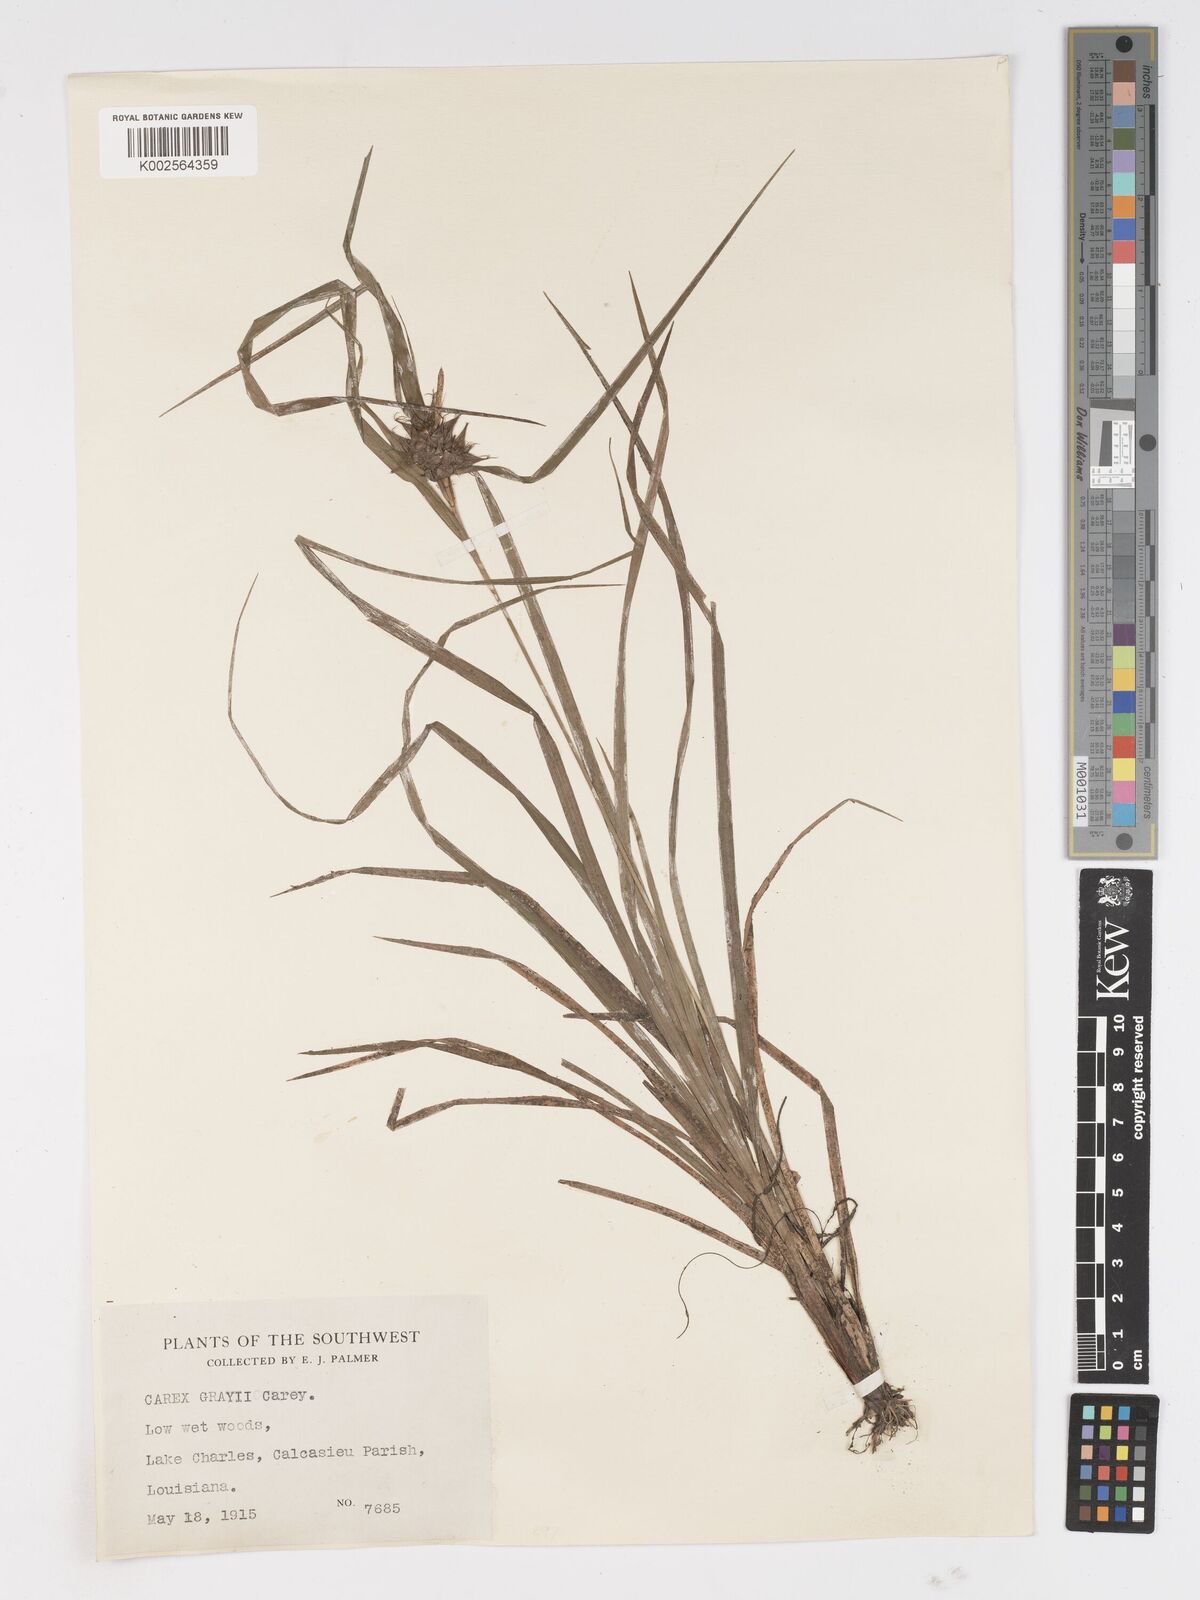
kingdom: Plantae
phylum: Tracheophyta
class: Liliopsida
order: Poales
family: Cyperaceae
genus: Carex
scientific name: Carex grayi
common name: Asa gray's sedge
